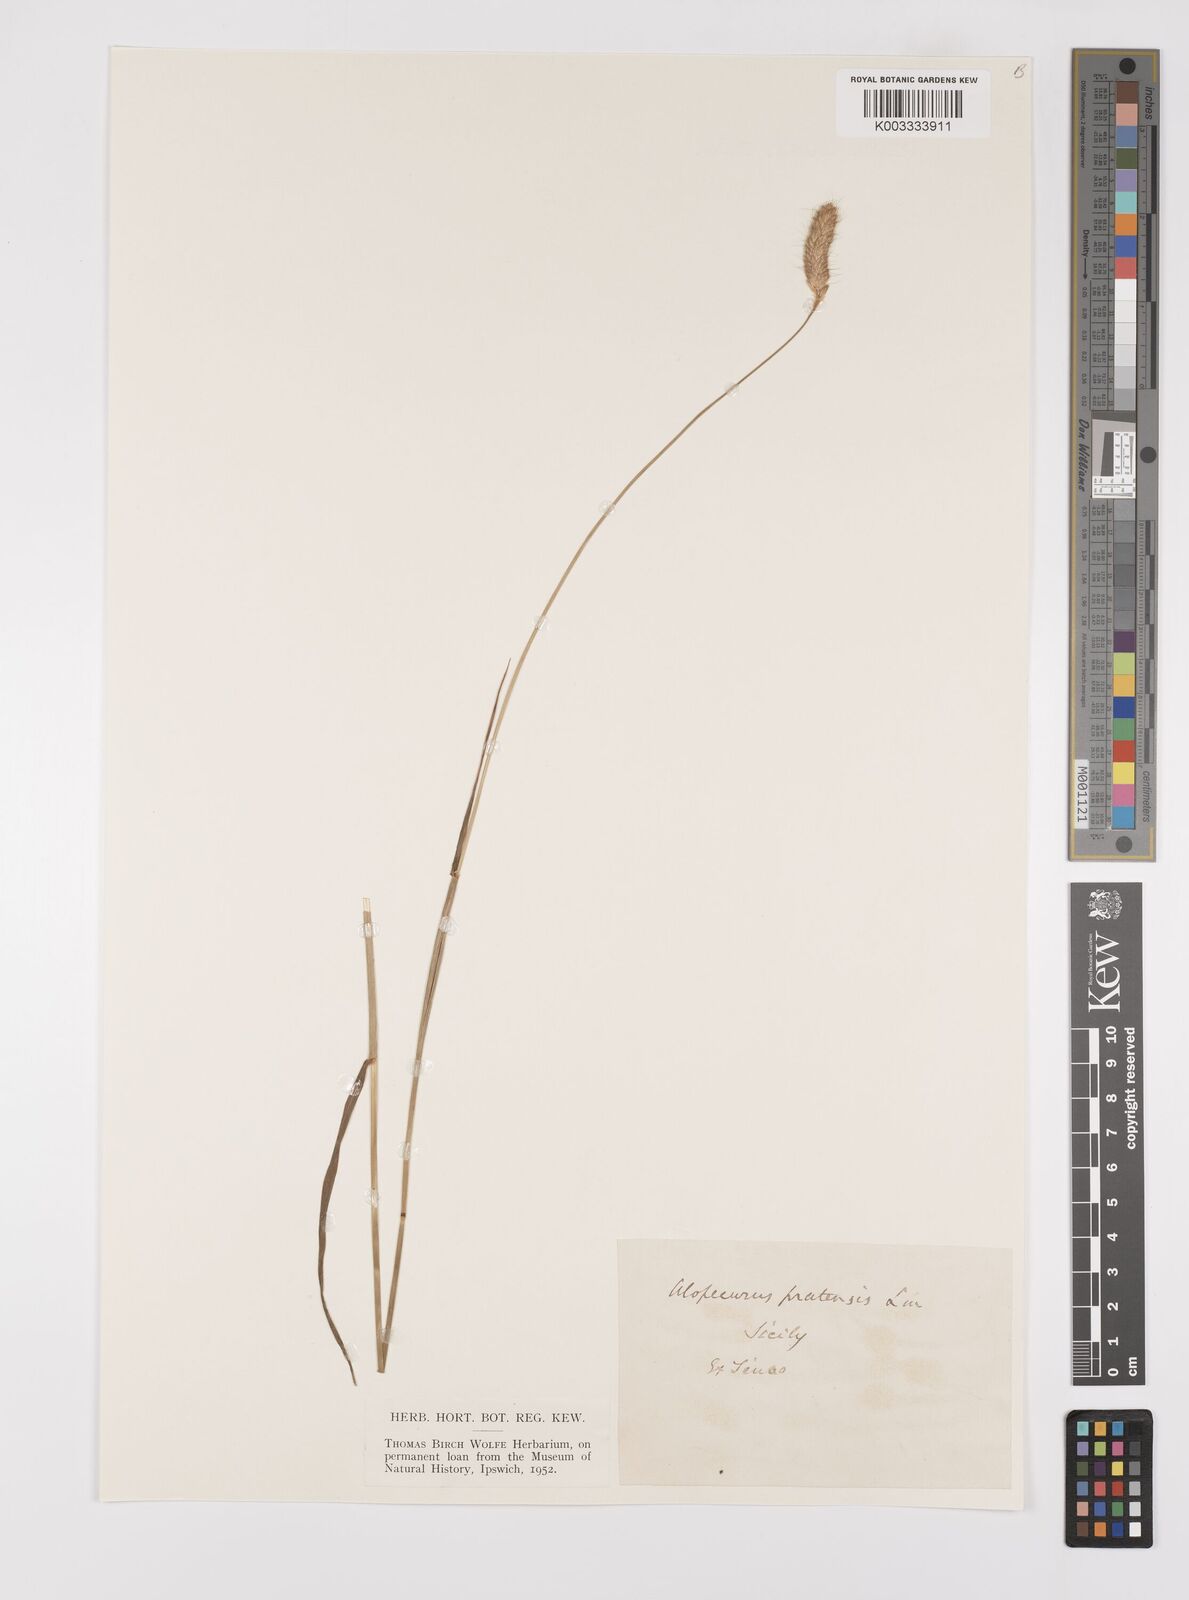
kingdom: Plantae
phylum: Tracheophyta
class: Liliopsida
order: Poales
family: Poaceae
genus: Alopecurus
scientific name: Alopecurus pratensis
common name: Meadow foxtail
